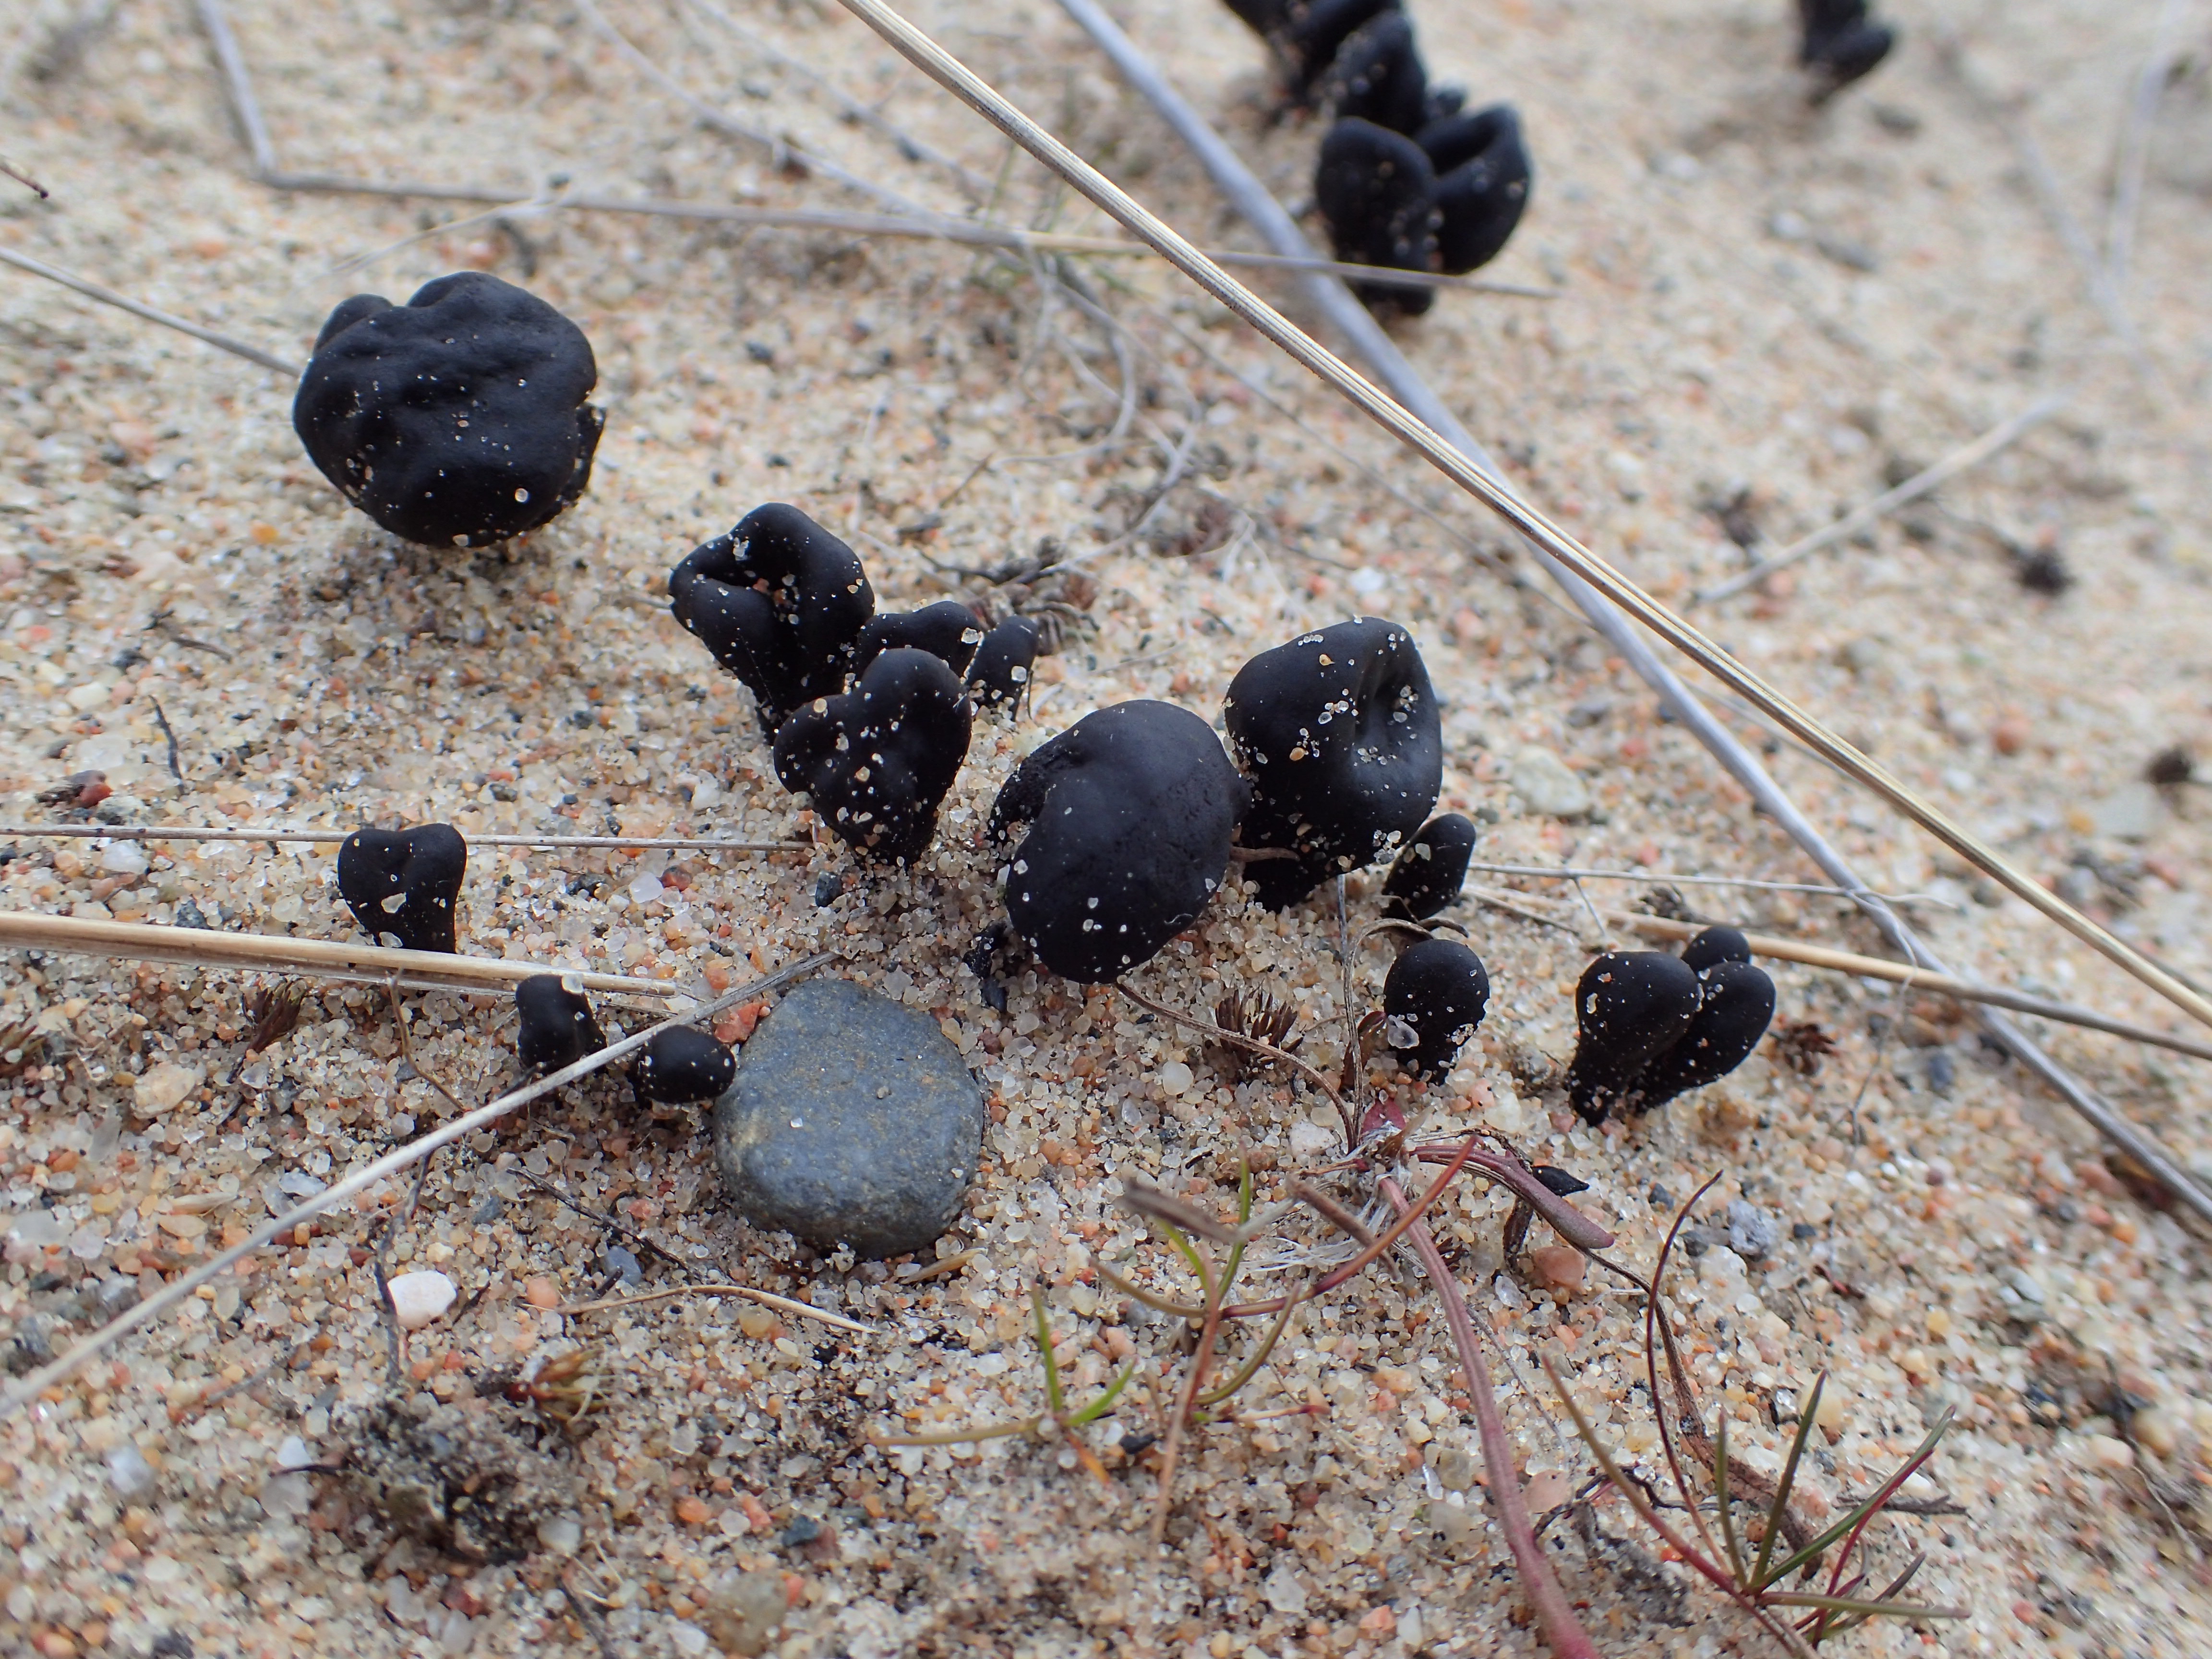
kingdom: Fungi
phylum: Ascomycota
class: Geoglossomycetes
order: Geoglossales
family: Geoglossaceae
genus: Sabuloglossum
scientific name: Sabuloglossum arenarium
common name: Sandy earthtongue
